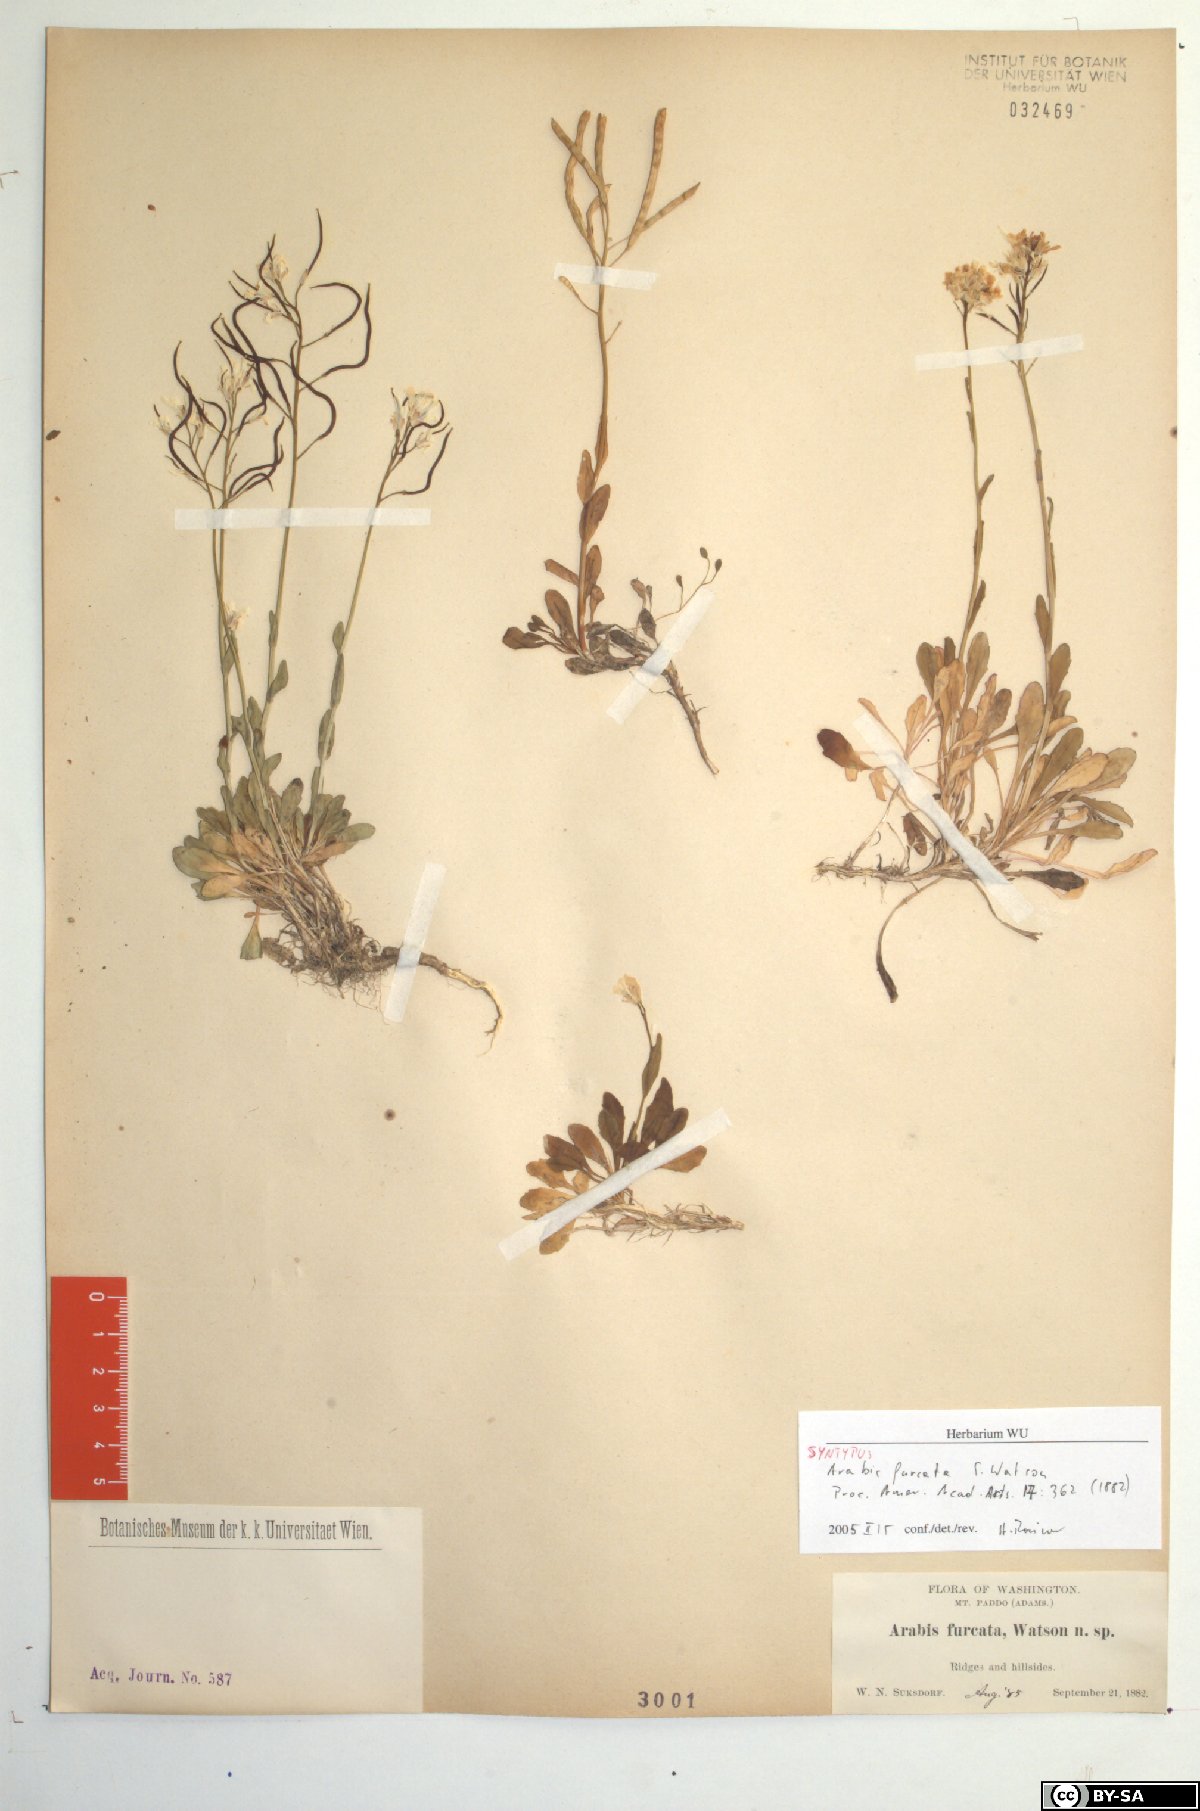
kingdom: Plantae
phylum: Tracheophyta
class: Magnoliopsida
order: Brassicales
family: Brassicaceae
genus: Arabis
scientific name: Arabis furcata
